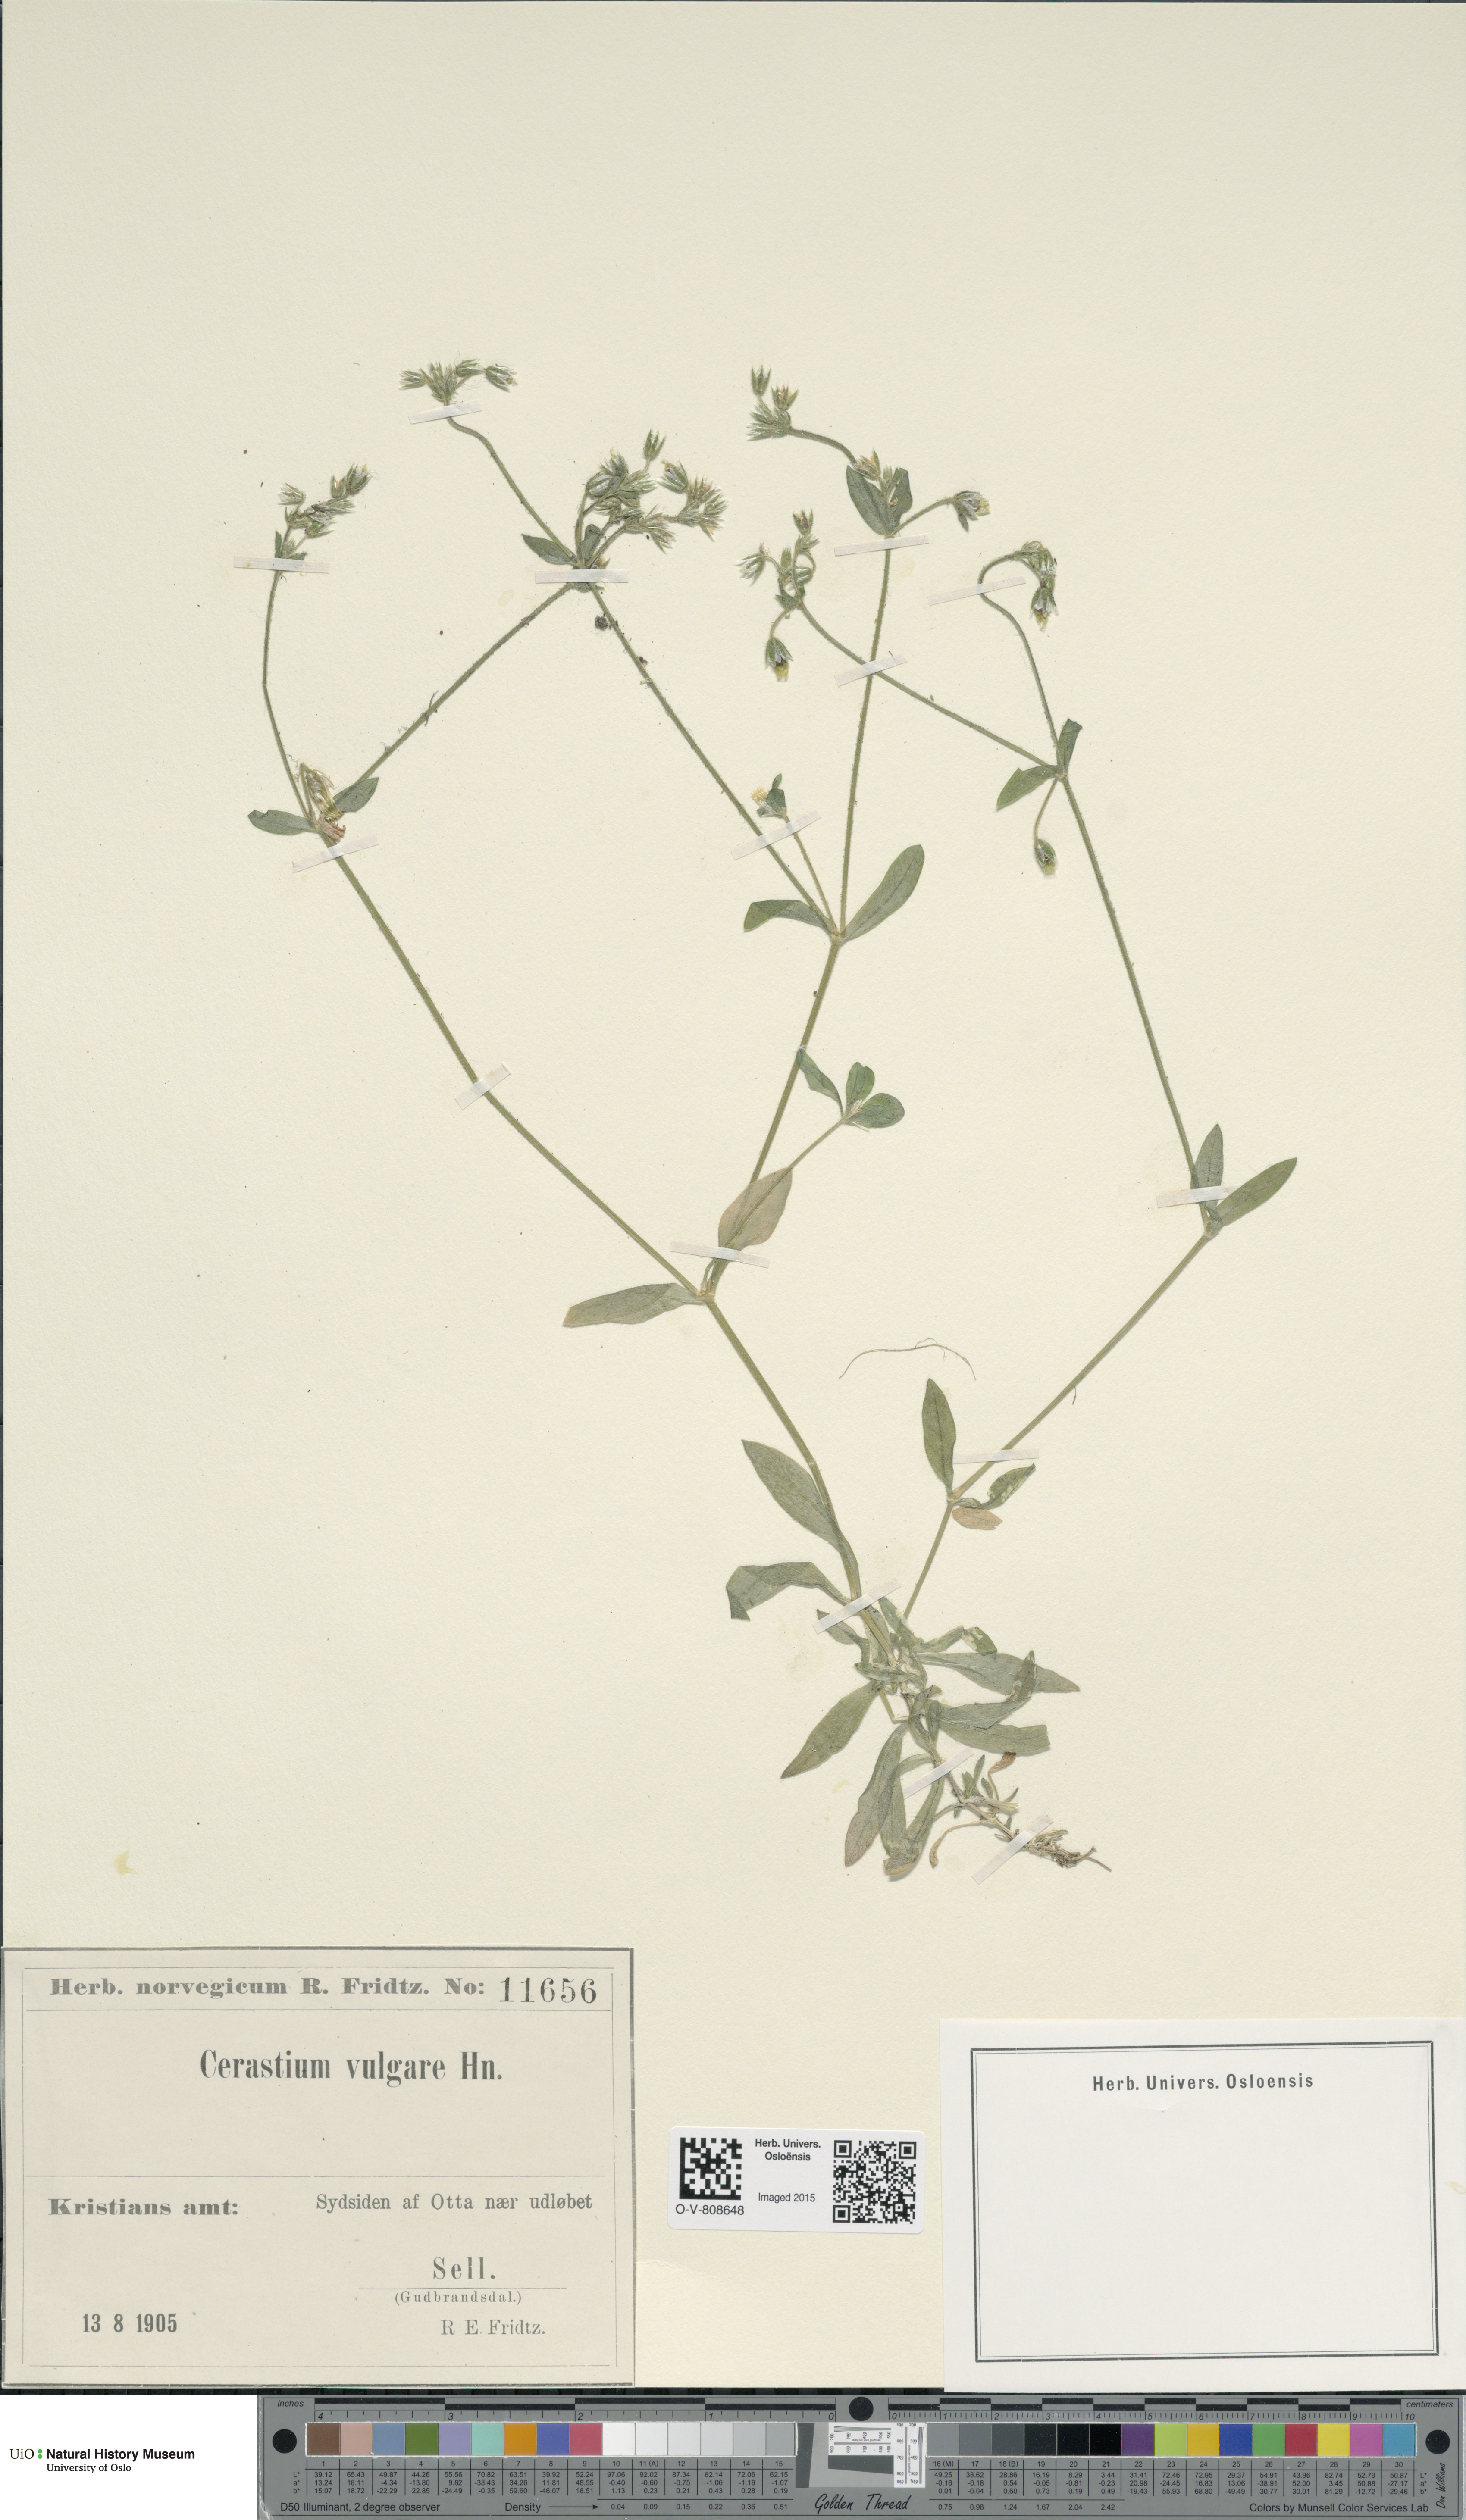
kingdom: Plantae
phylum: Tracheophyta
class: Magnoliopsida
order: Caryophyllales
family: Caryophyllaceae
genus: Cerastium
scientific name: Cerastium holosteoides
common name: Big chickweed
